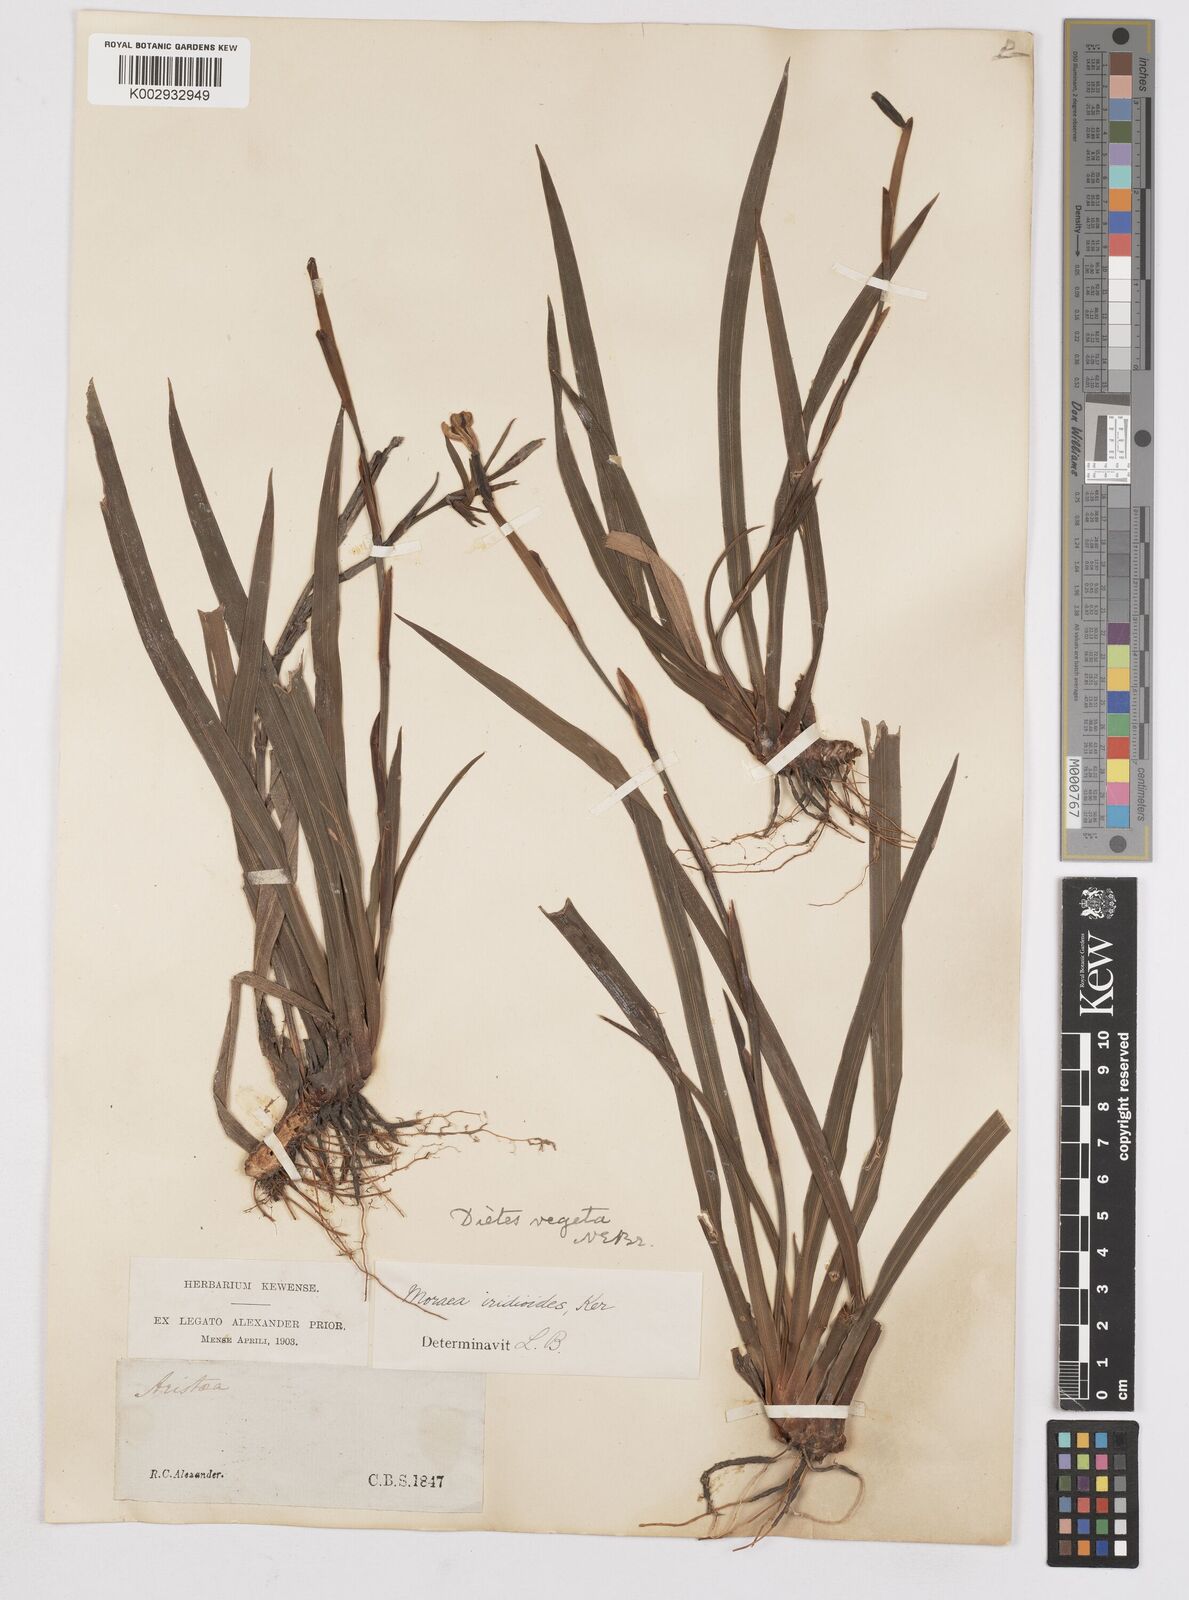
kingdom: Plantae
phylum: Tracheophyta
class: Liliopsida
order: Asparagales
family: Iridaceae
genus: Dietes
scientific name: Dietes iridioides
